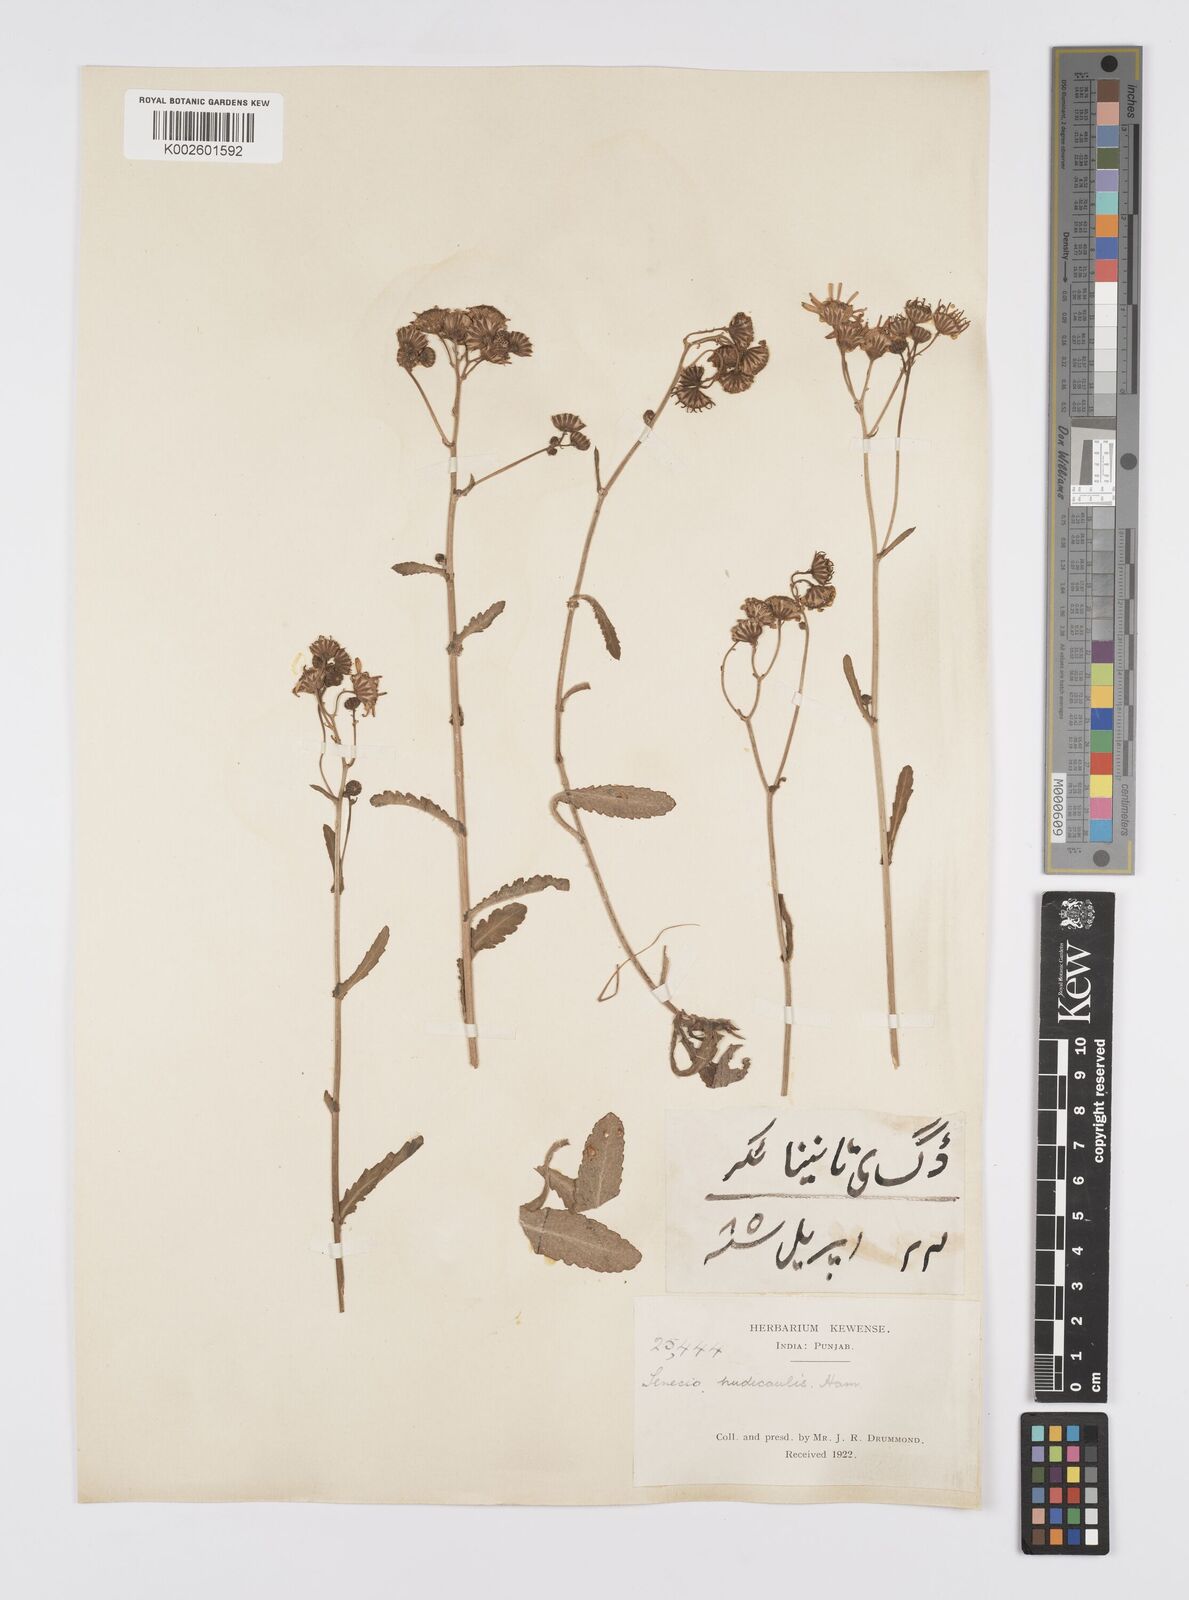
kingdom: Plantae
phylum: Tracheophyta
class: Magnoliopsida
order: Asterales
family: Asteraceae
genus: Senecio
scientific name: Senecio
